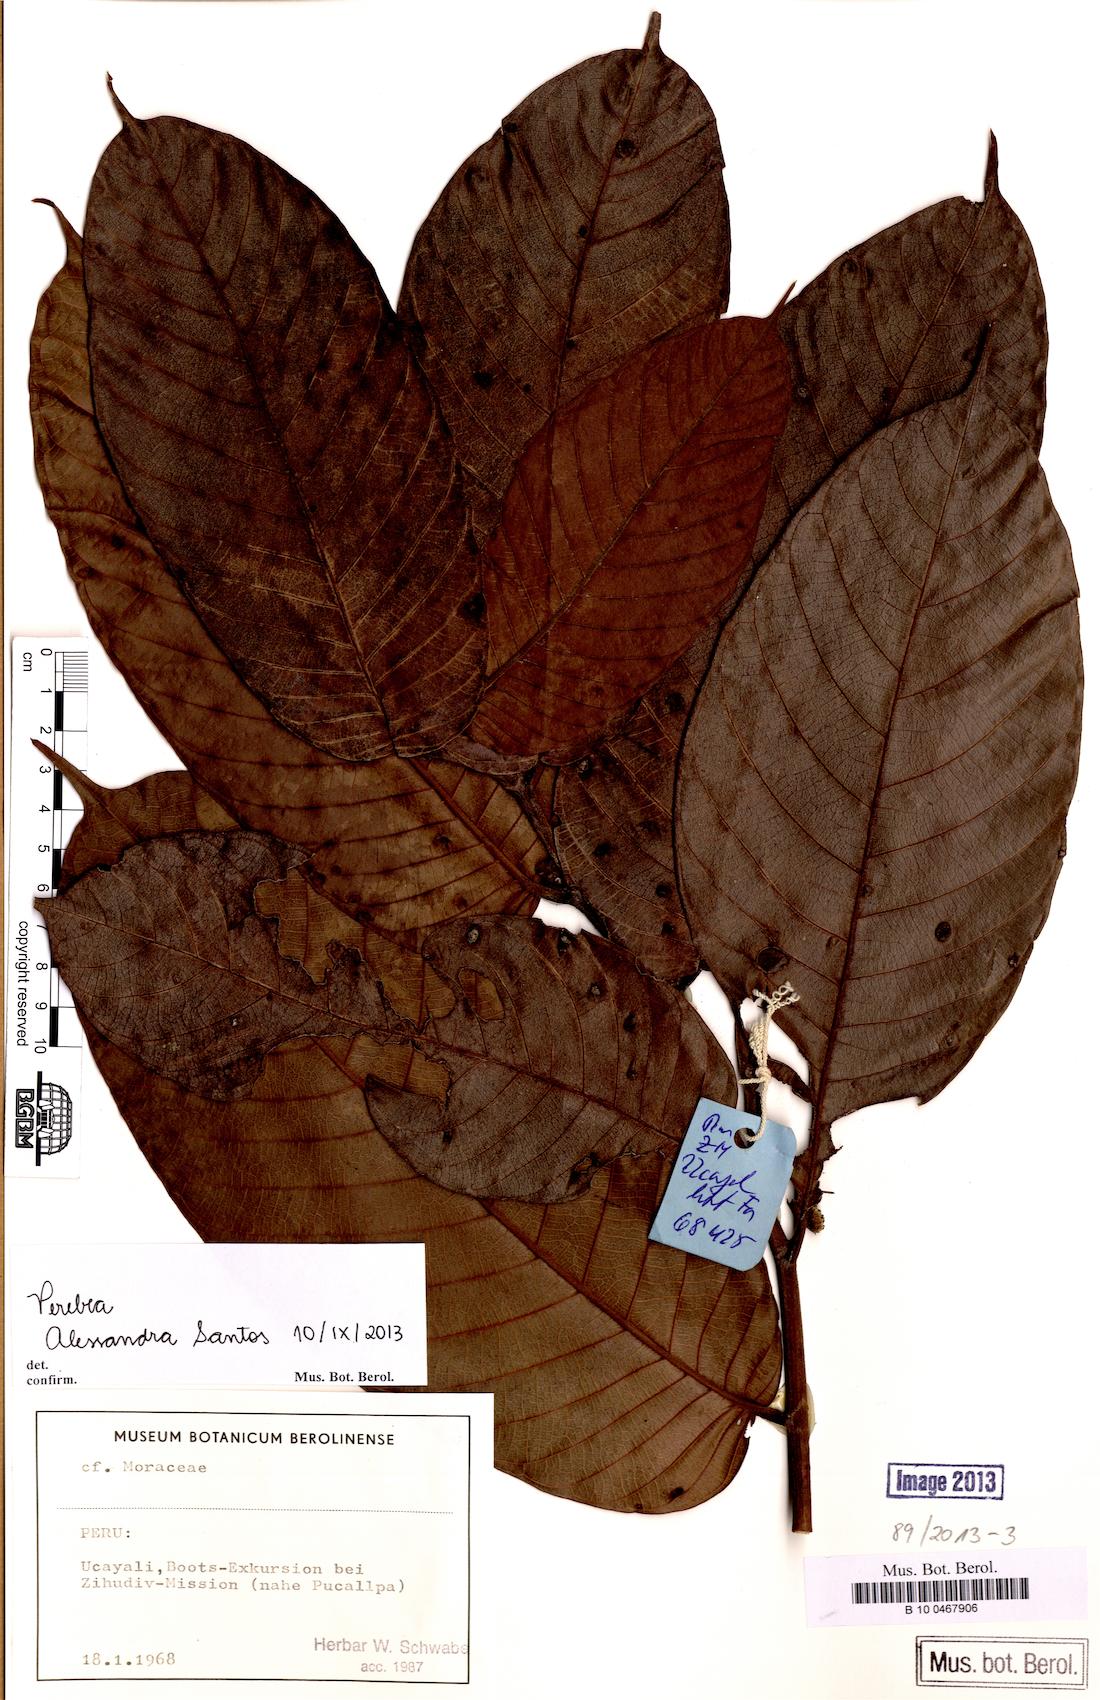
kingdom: Plantae
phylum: Tracheophyta
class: Magnoliopsida
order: Rosales
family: Moraceae
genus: Perebea
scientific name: Perebea
